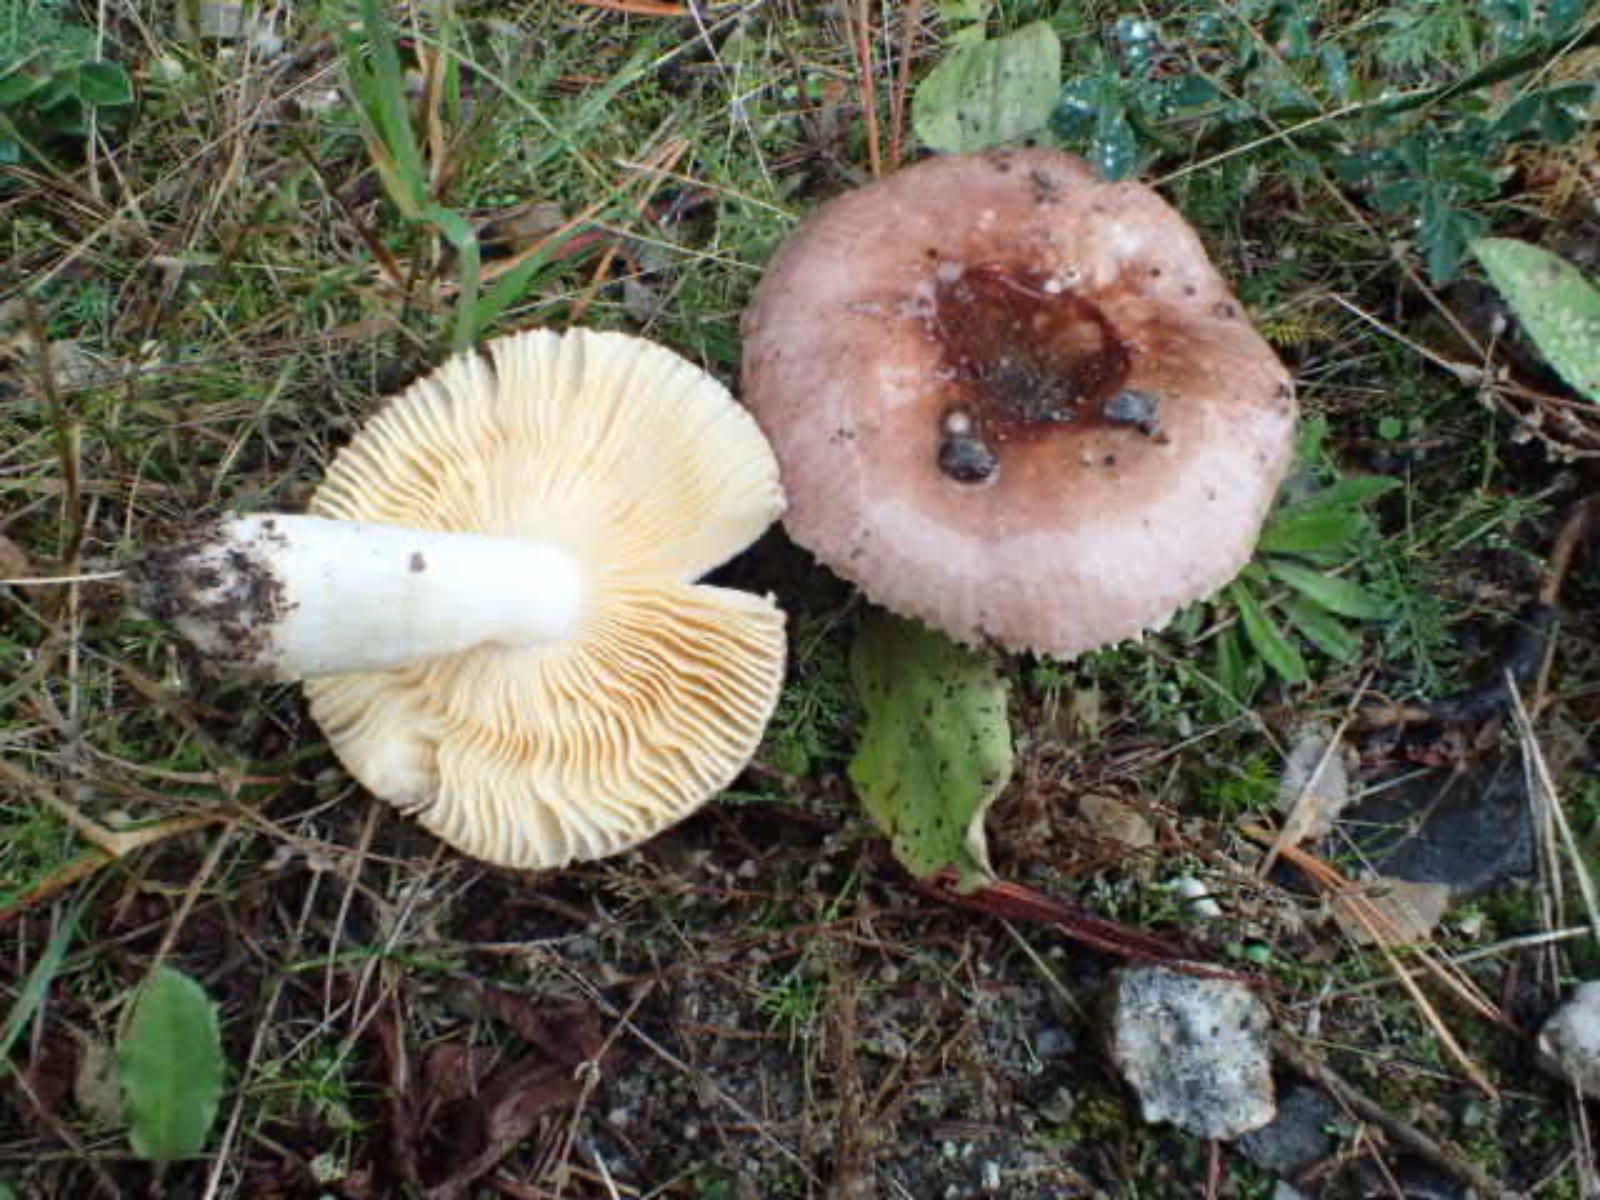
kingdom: Fungi
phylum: Basidiomycota
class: Agaricomycetes
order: Russulales
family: Russulaceae
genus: Russula
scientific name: Russula cessans
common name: fyrre-skørhat
